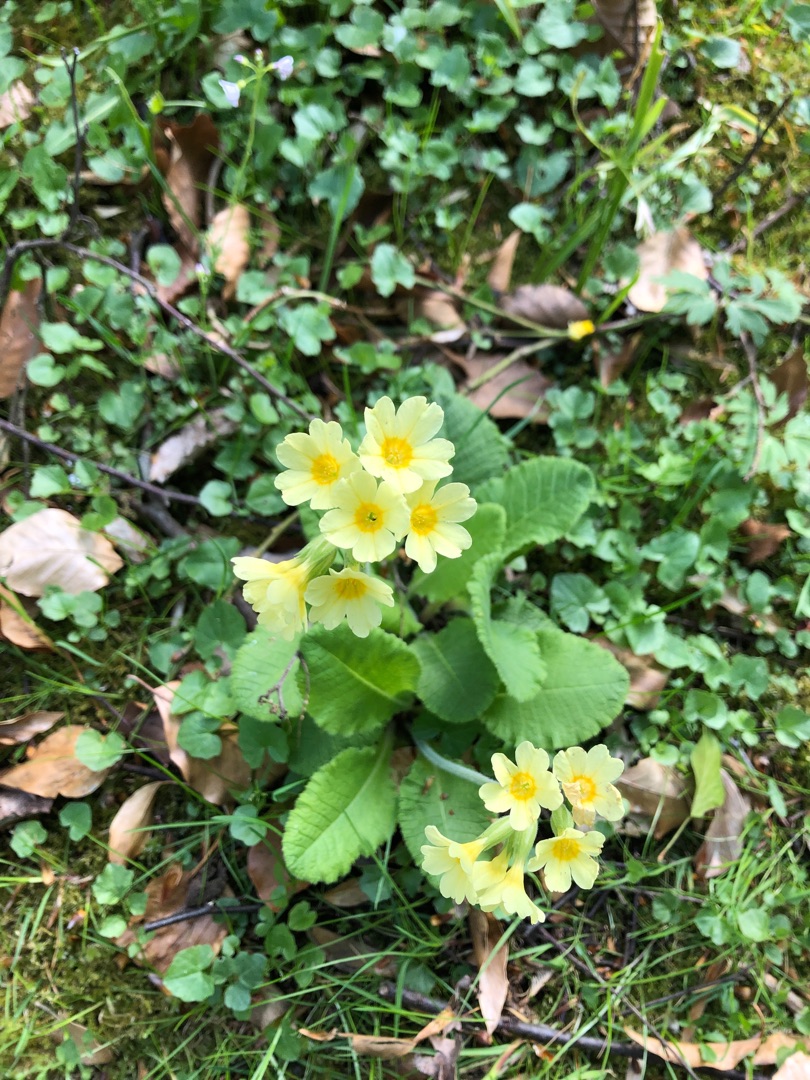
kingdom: Plantae
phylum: Tracheophyta
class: Magnoliopsida
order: Ericales
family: Primulaceae
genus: Primula
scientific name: Primula elatior
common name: Fladkravet kodriver
